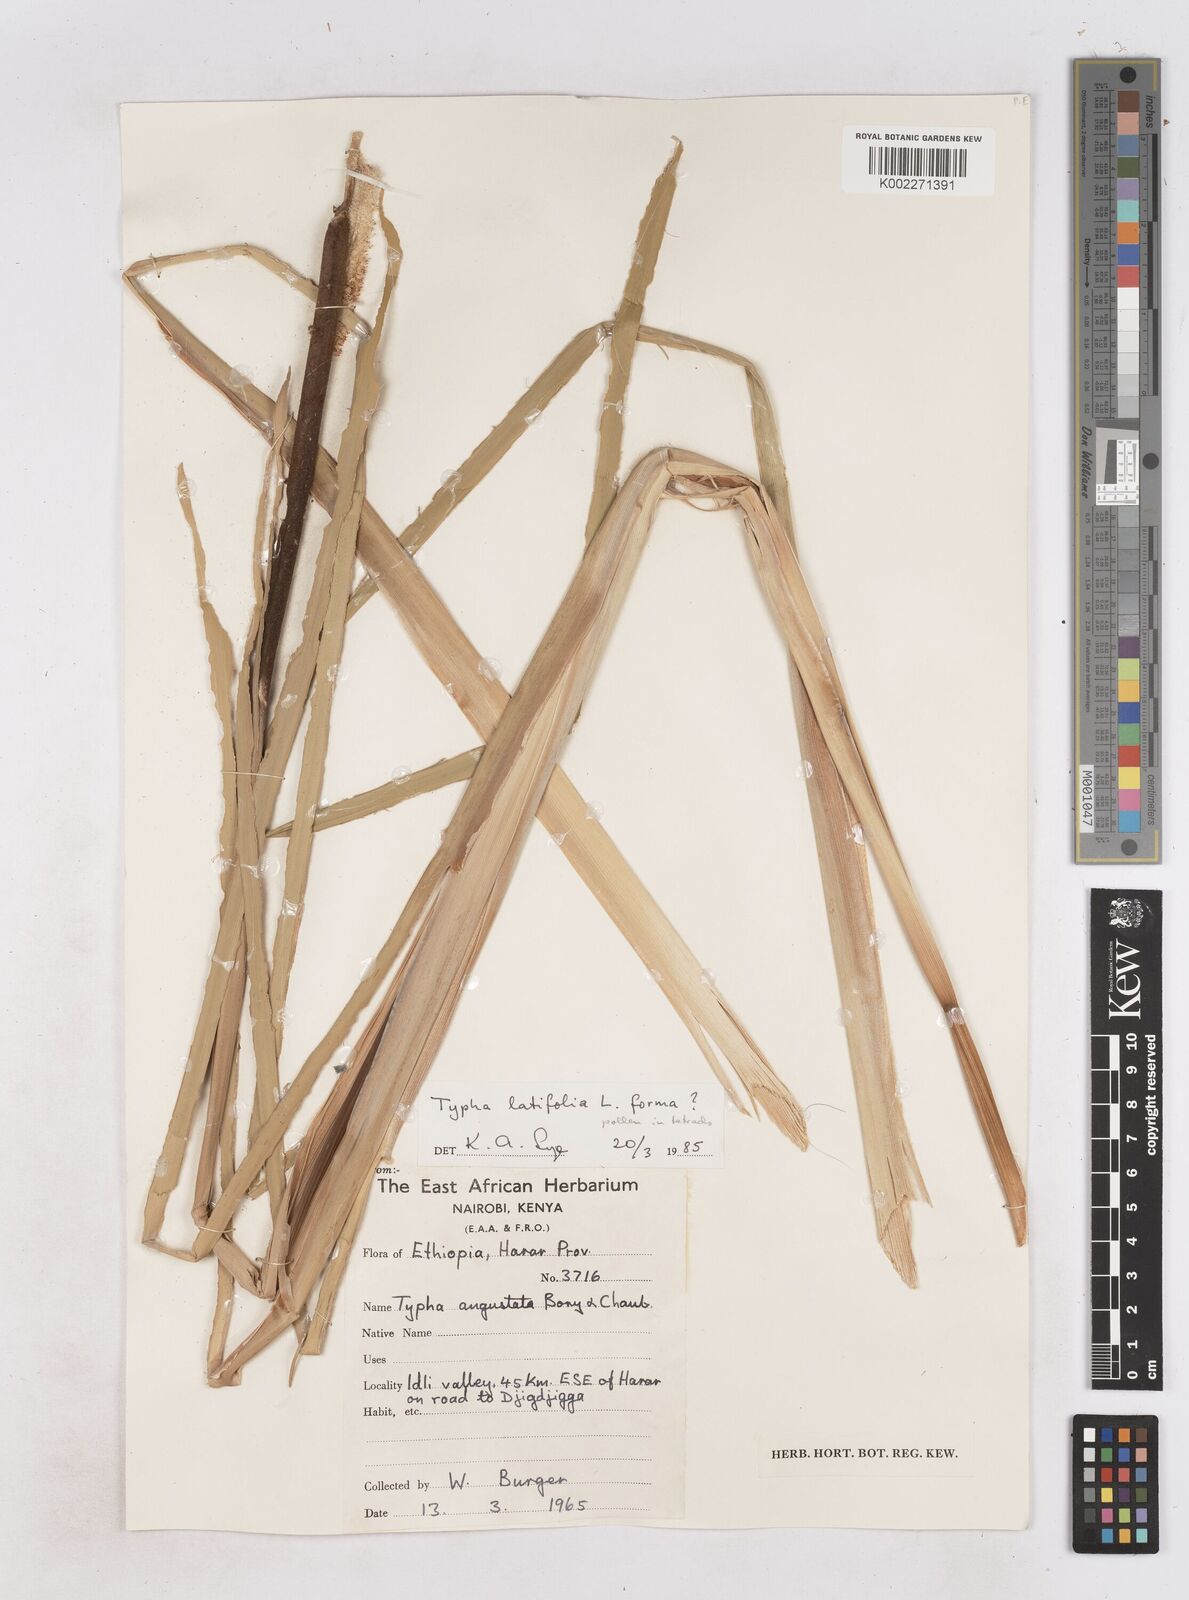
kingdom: Plantae
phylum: Tracheophyta
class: Liliopsida
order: Poales
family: Typhaceae
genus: Typha
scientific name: Typha latifolia
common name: Broadleaf cattail
